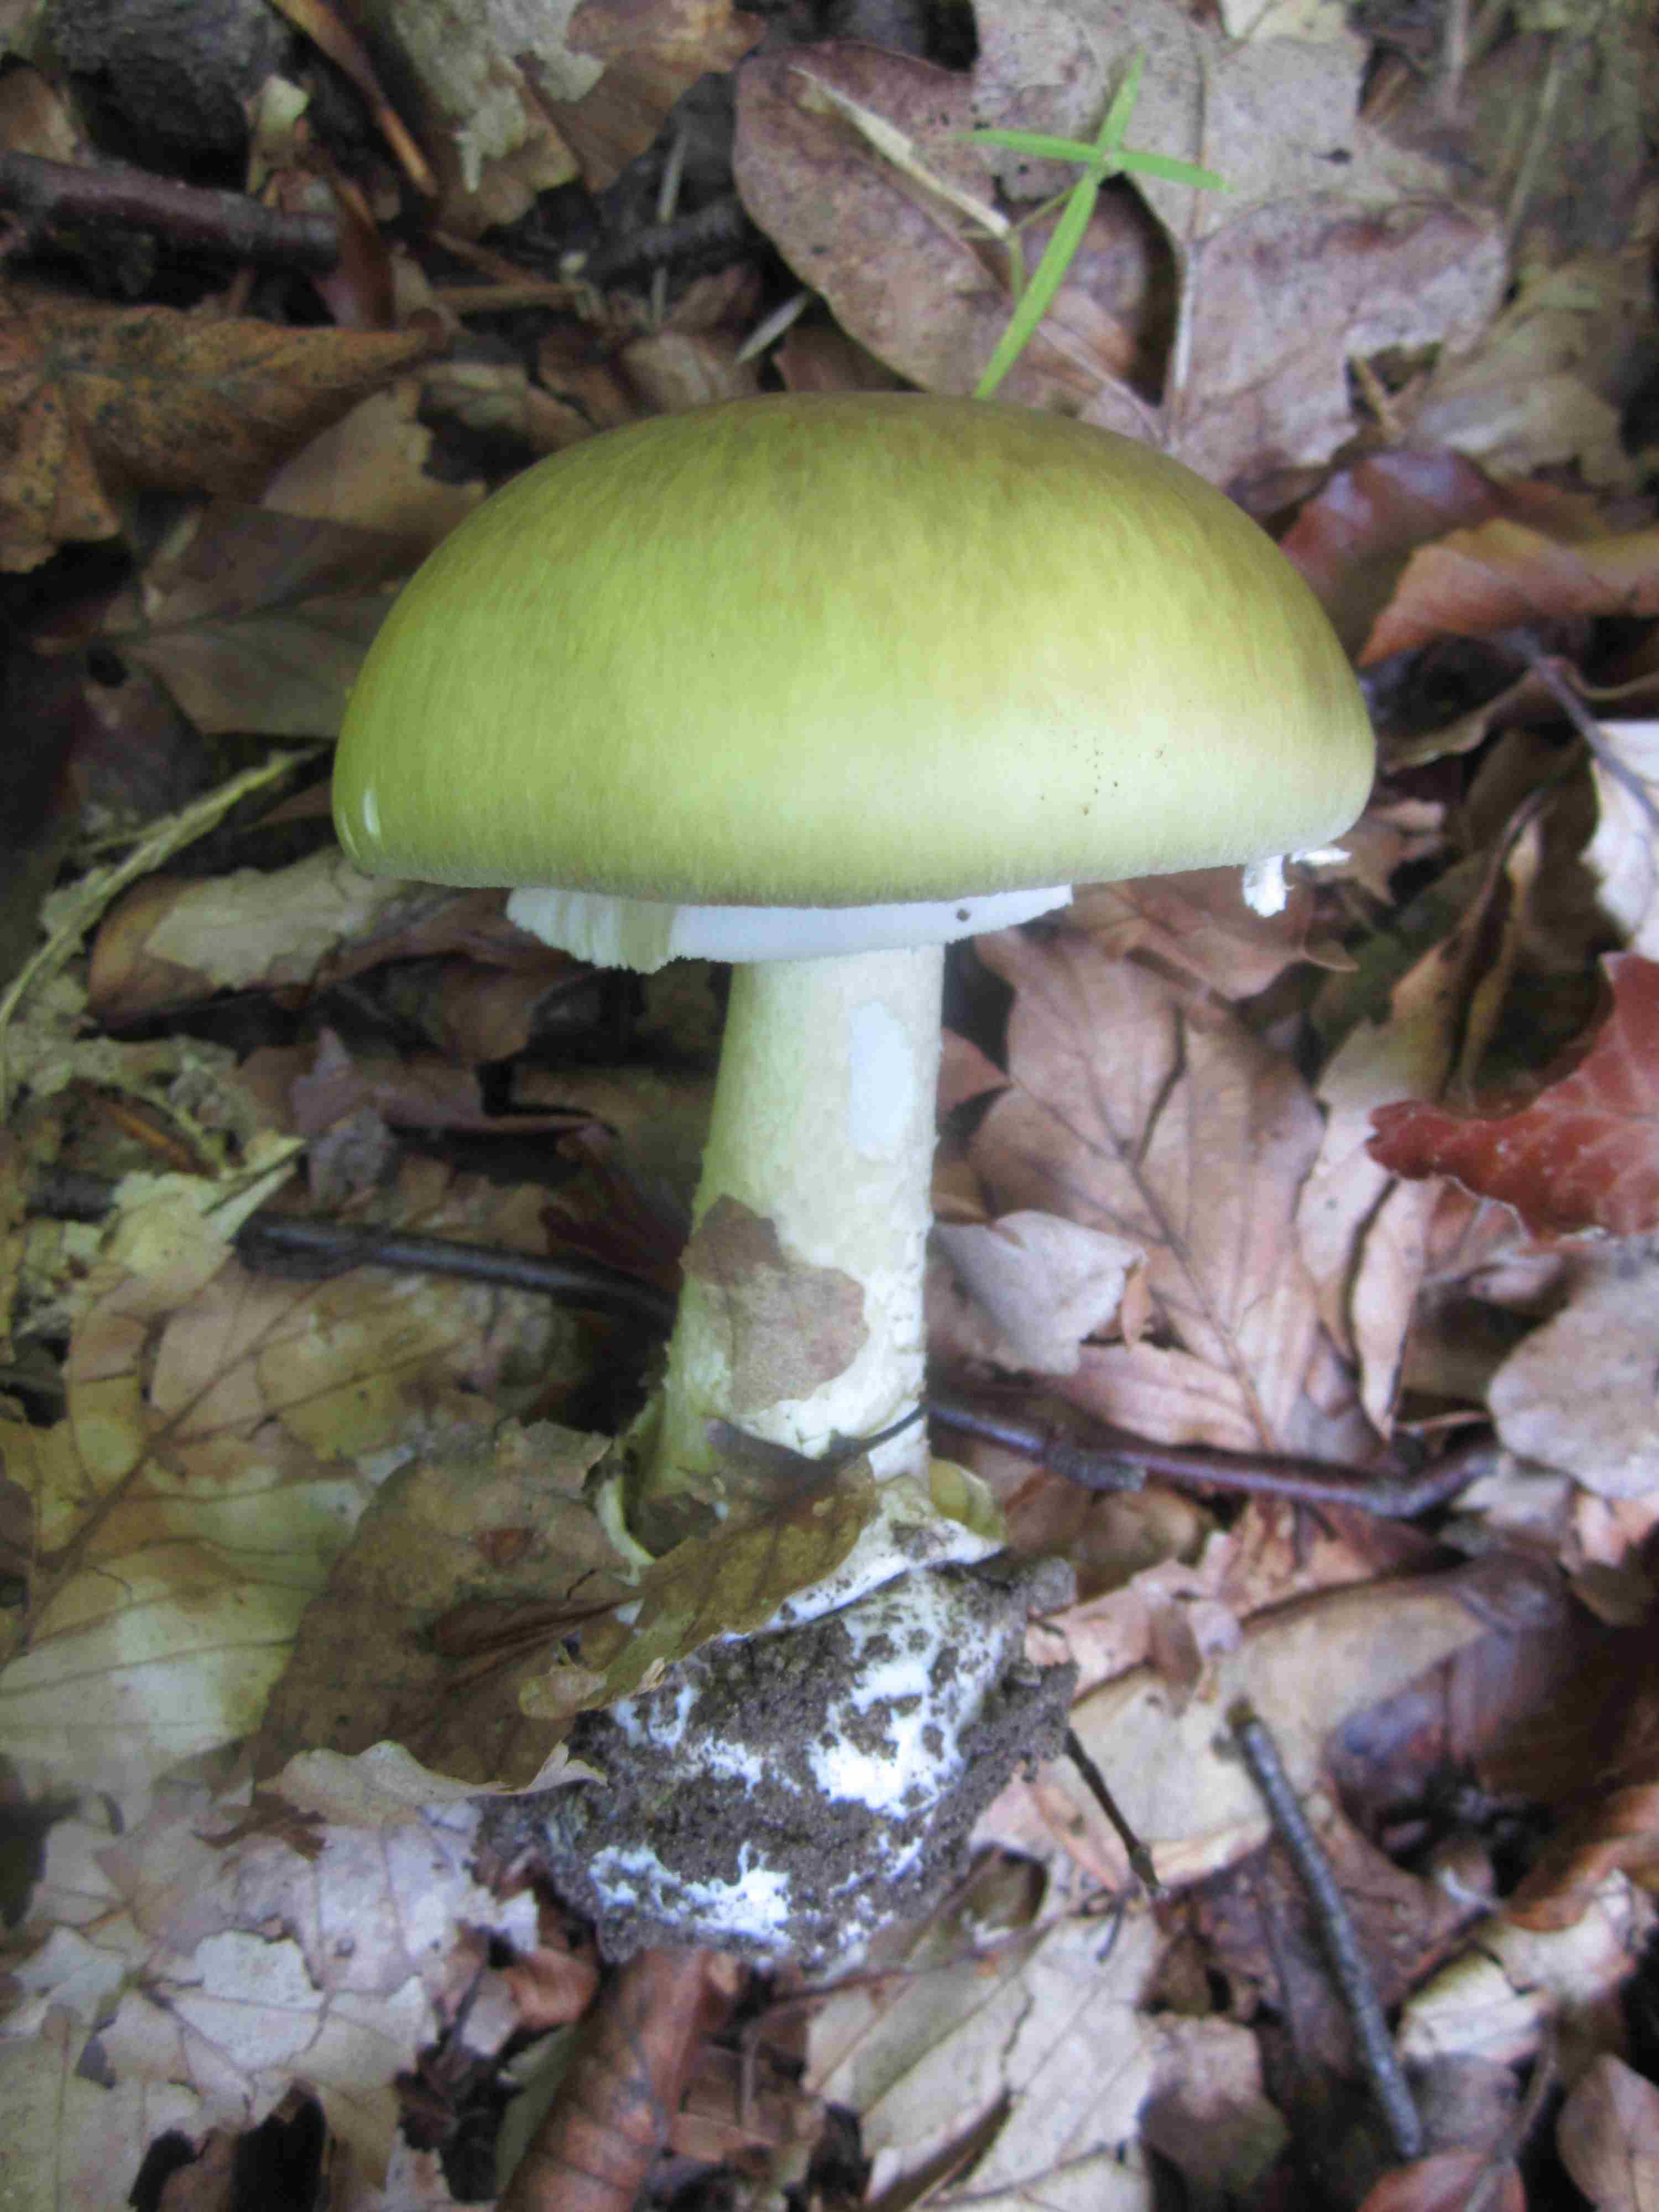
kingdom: Fungi
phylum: Basidiomycota
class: Agaricomycetes
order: Agaricales
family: Amanitaceae
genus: Amanita
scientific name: Amanita phalloides
